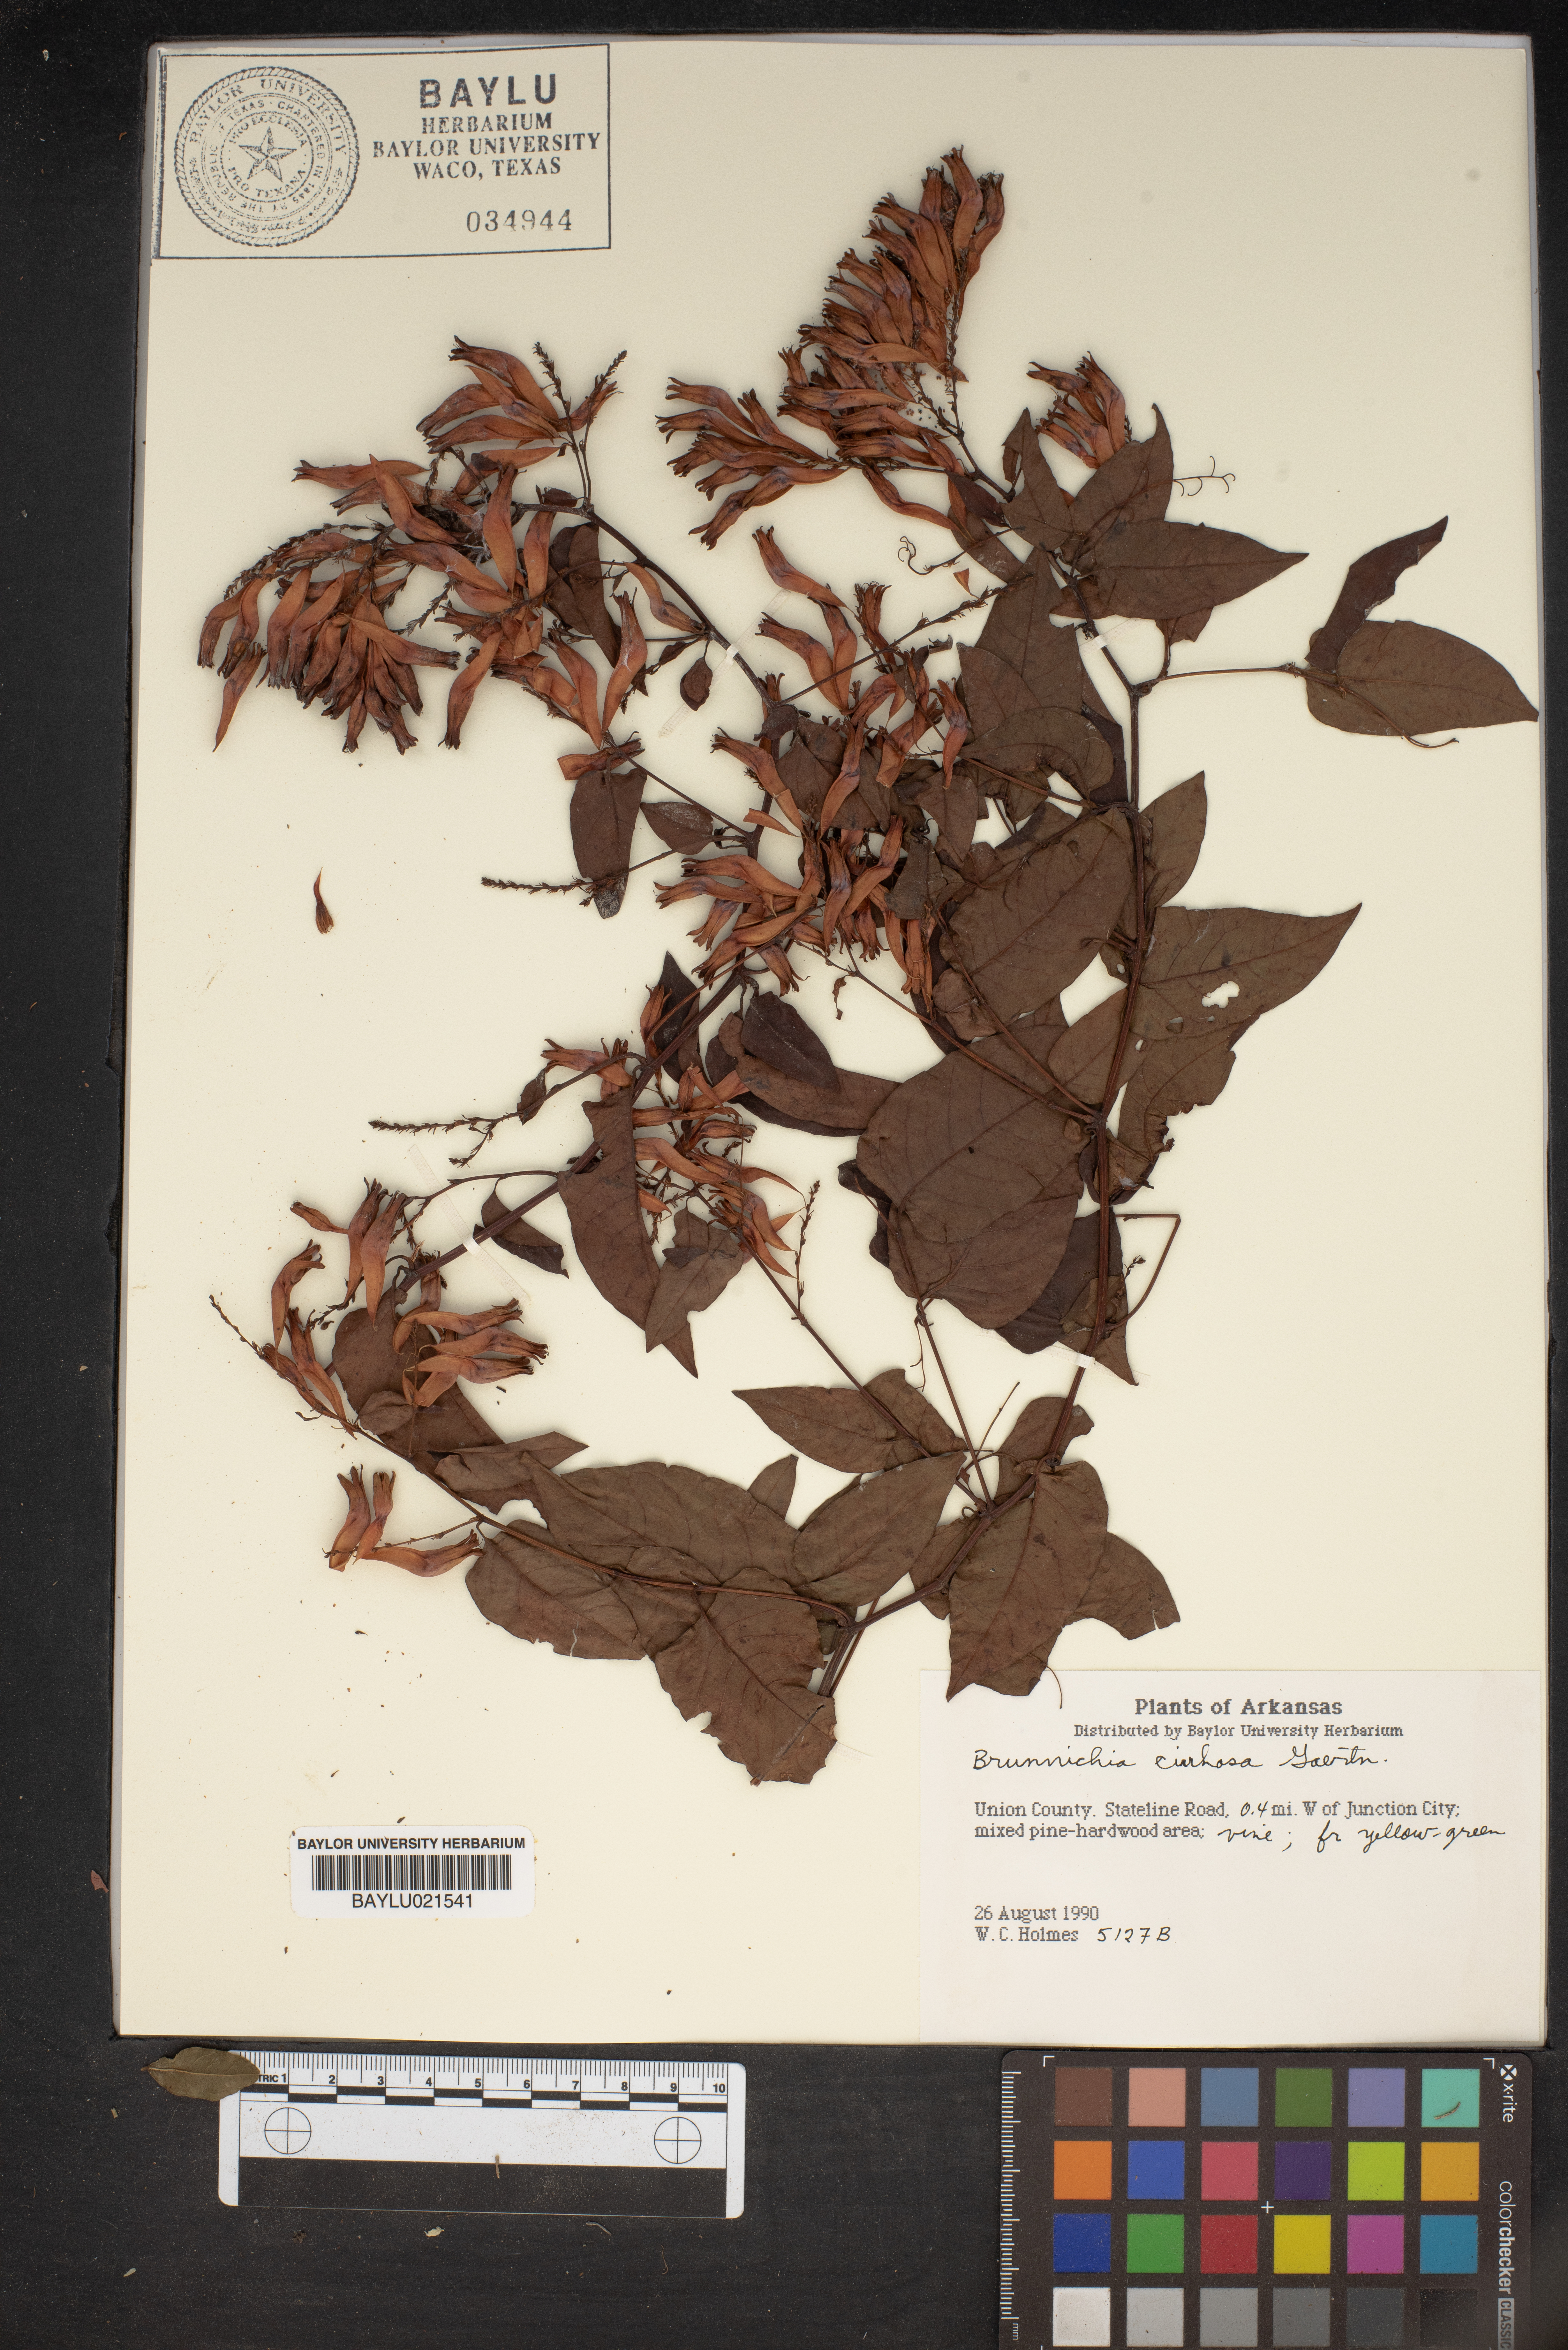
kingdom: Plantae
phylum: Tracheophyta
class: Magnoliopsida
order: Caryophyllales
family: Polygonaceae
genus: Brunnichia
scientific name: Brunnichia ovata
